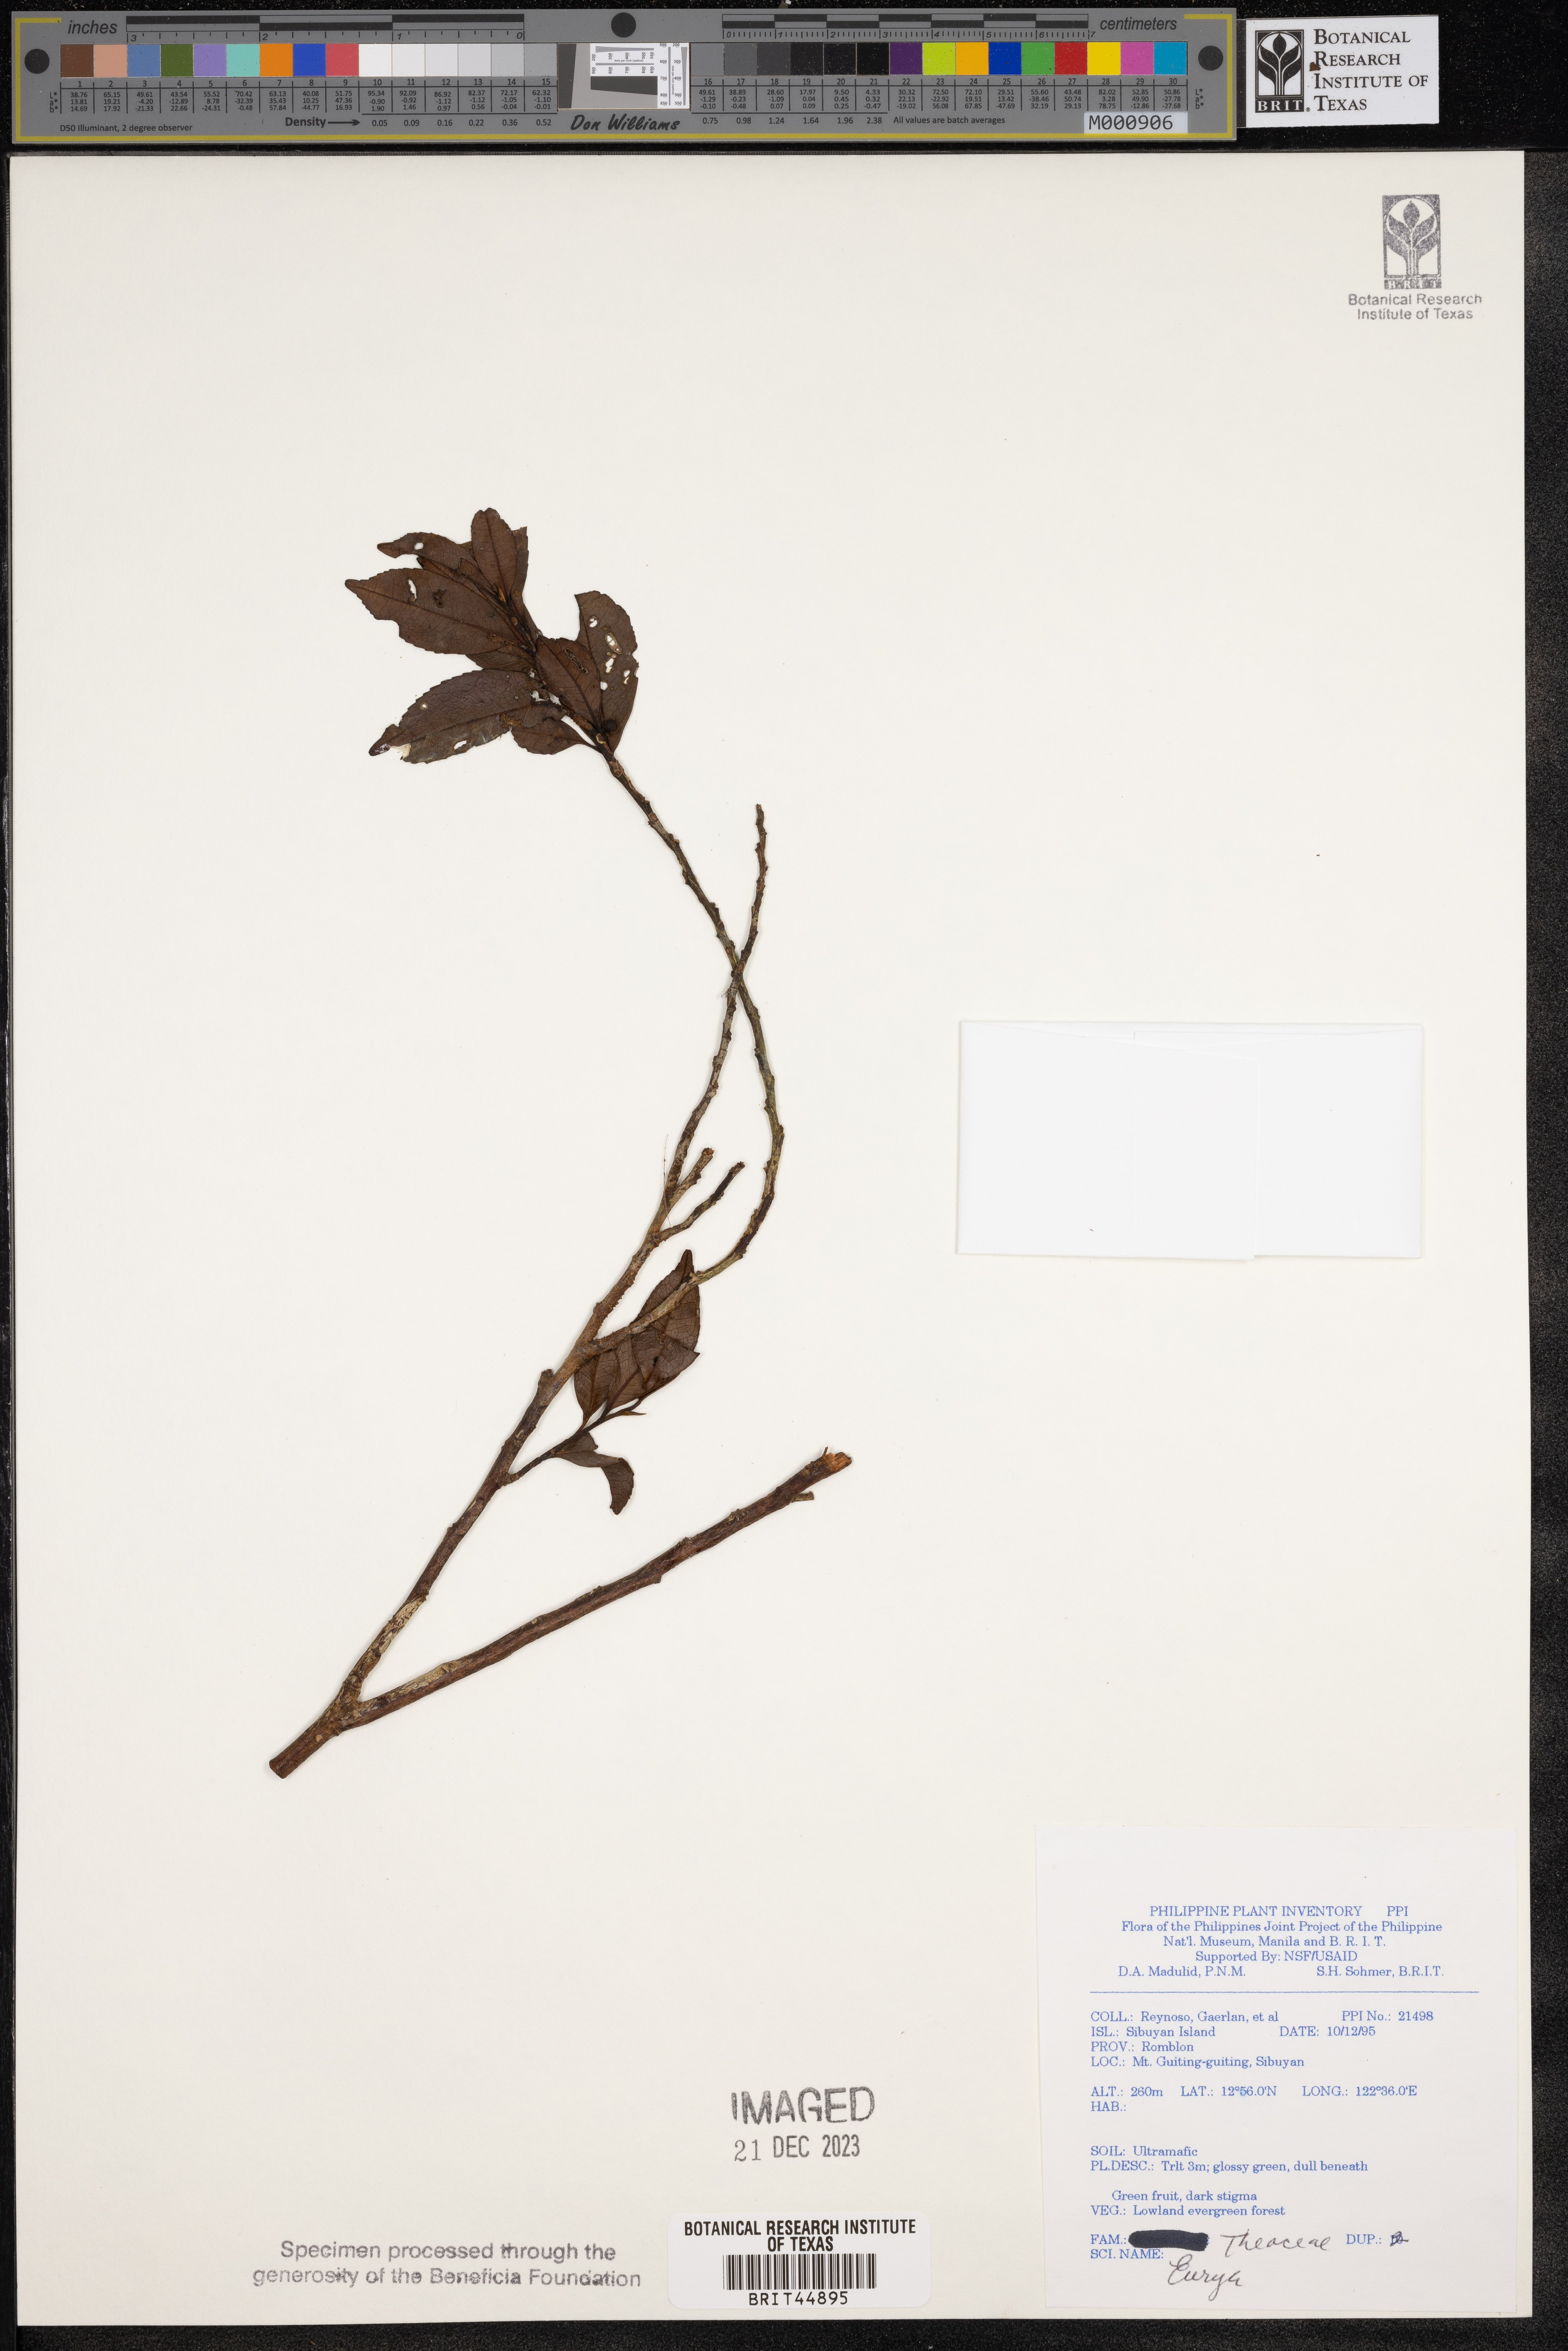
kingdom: Plantae
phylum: Tracheophyta
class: Magnoliopsida
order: Ericales
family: Pentaphylacaceae
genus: Eurya
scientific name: Eurya
